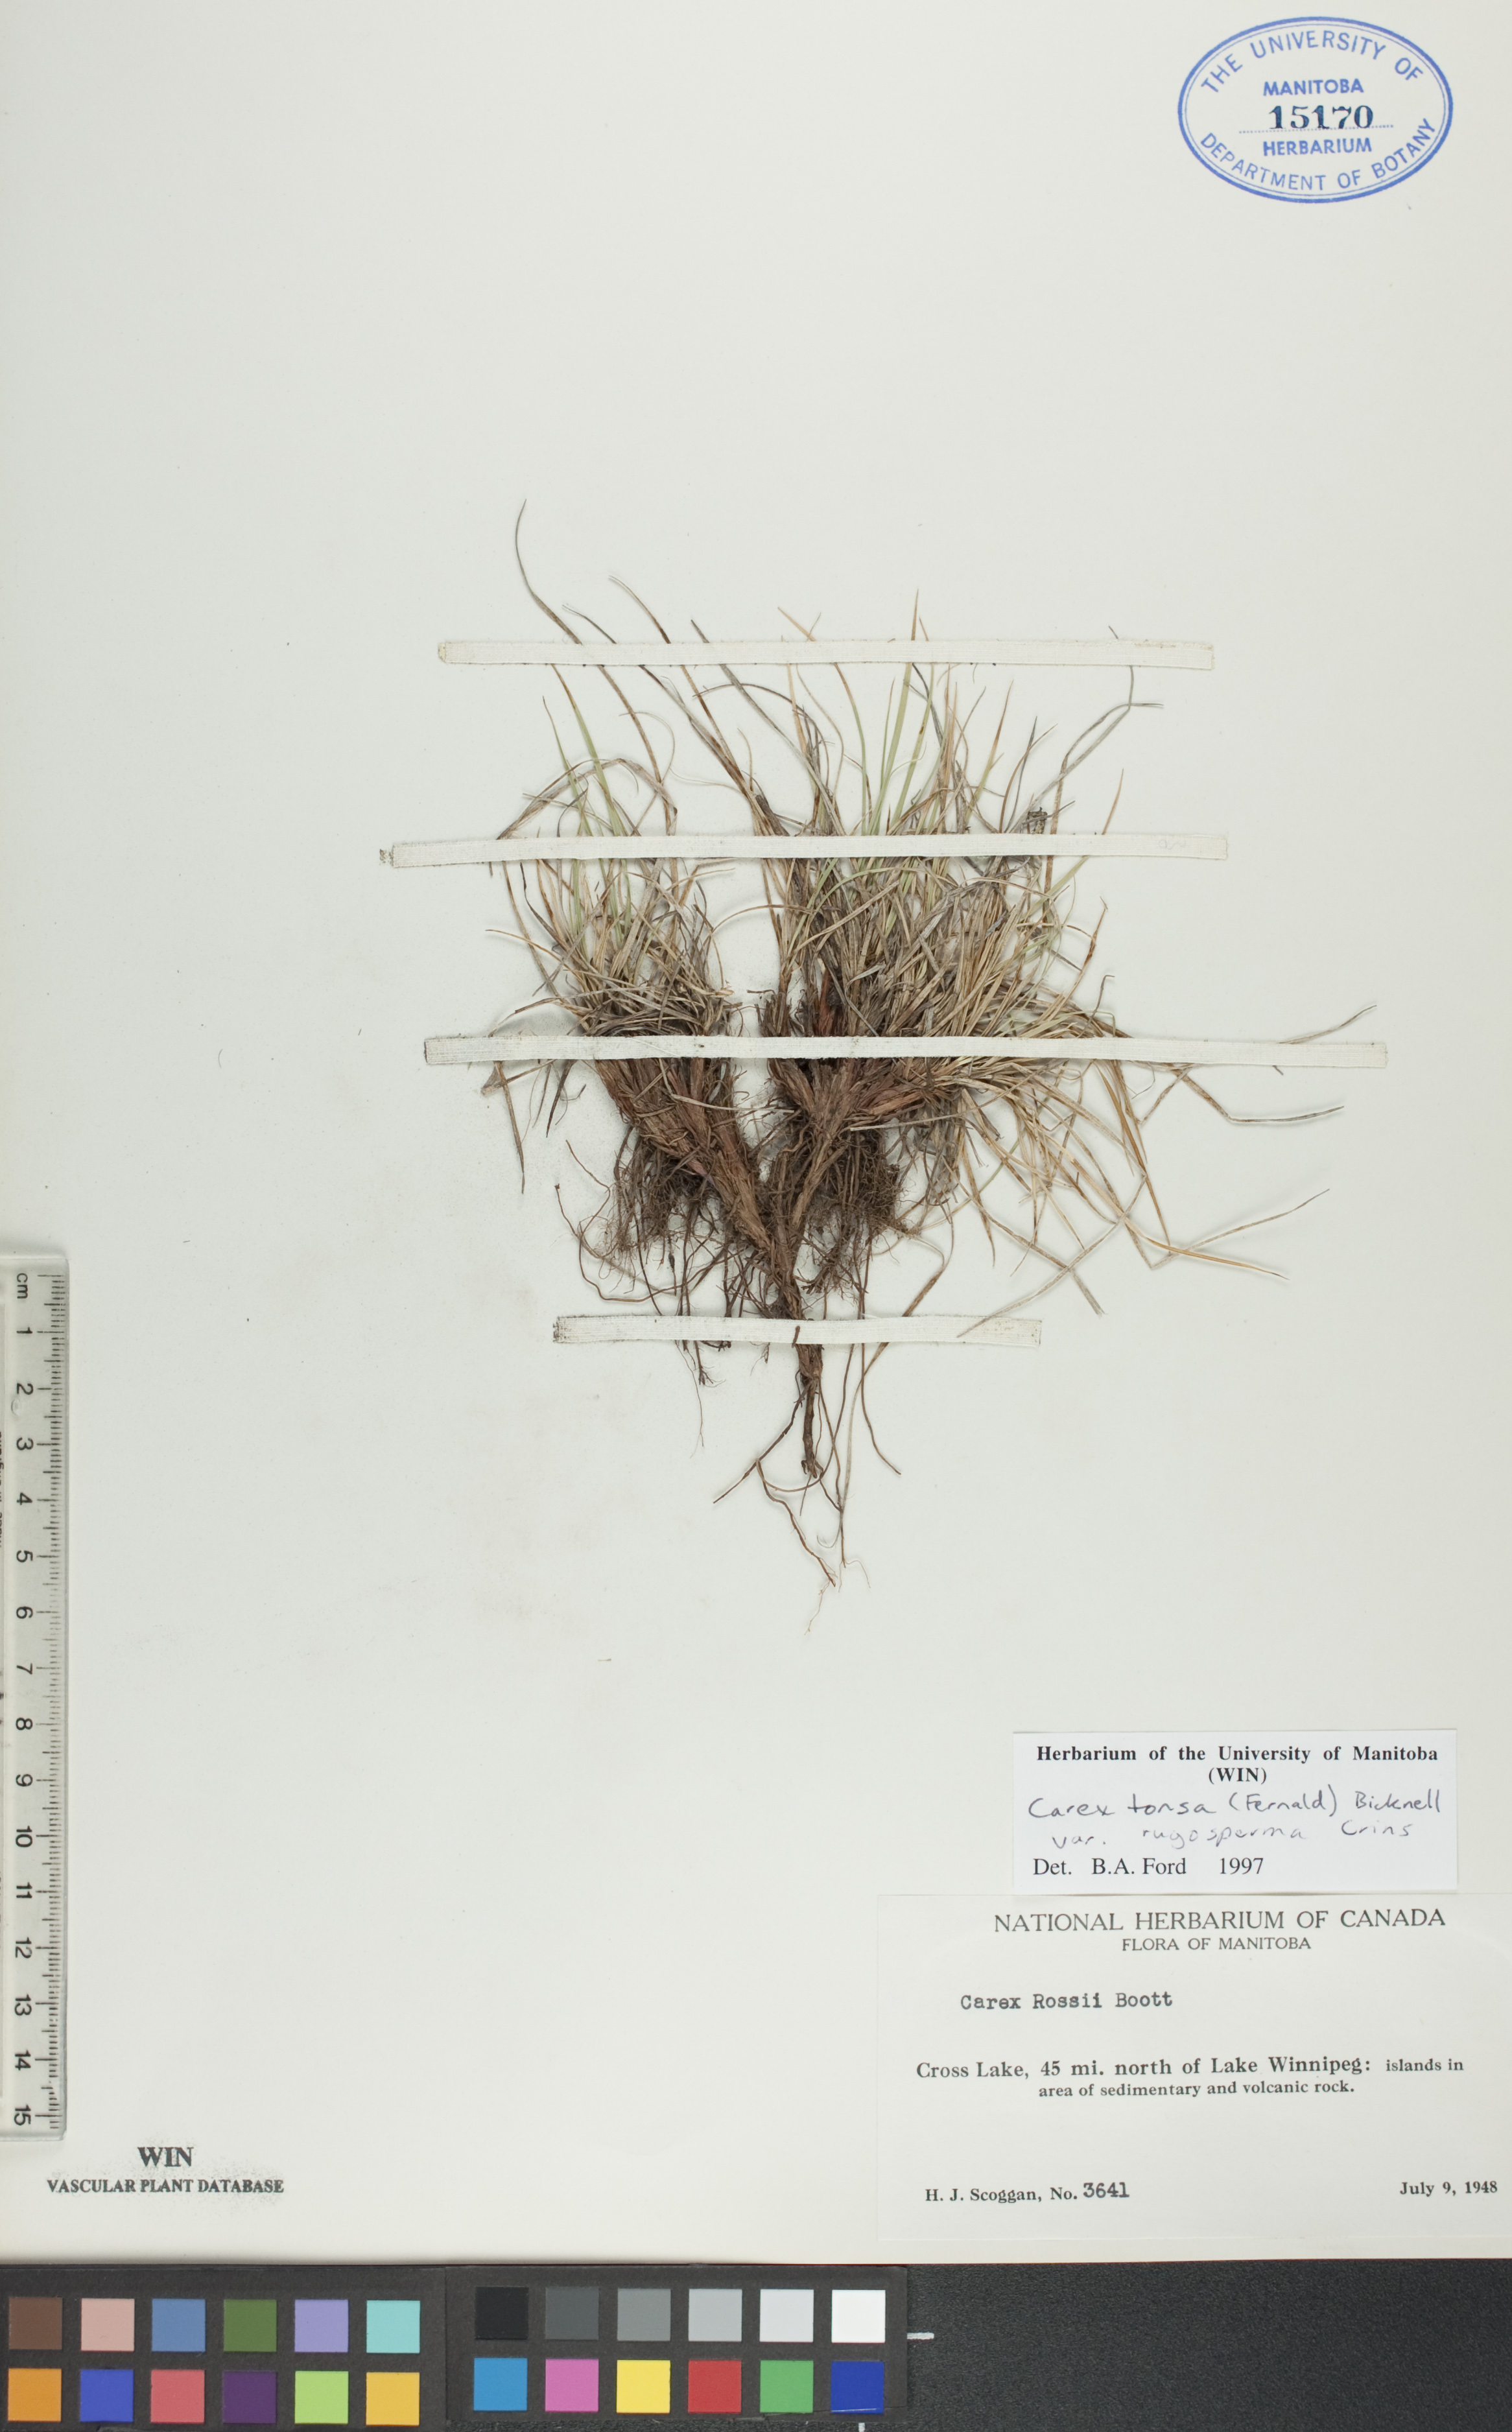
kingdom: Plantae
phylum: Tracheophyta
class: Liliopsida
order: Poales
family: Cyperaceae
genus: Carex
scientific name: Carex tonsa
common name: Bald sedge
